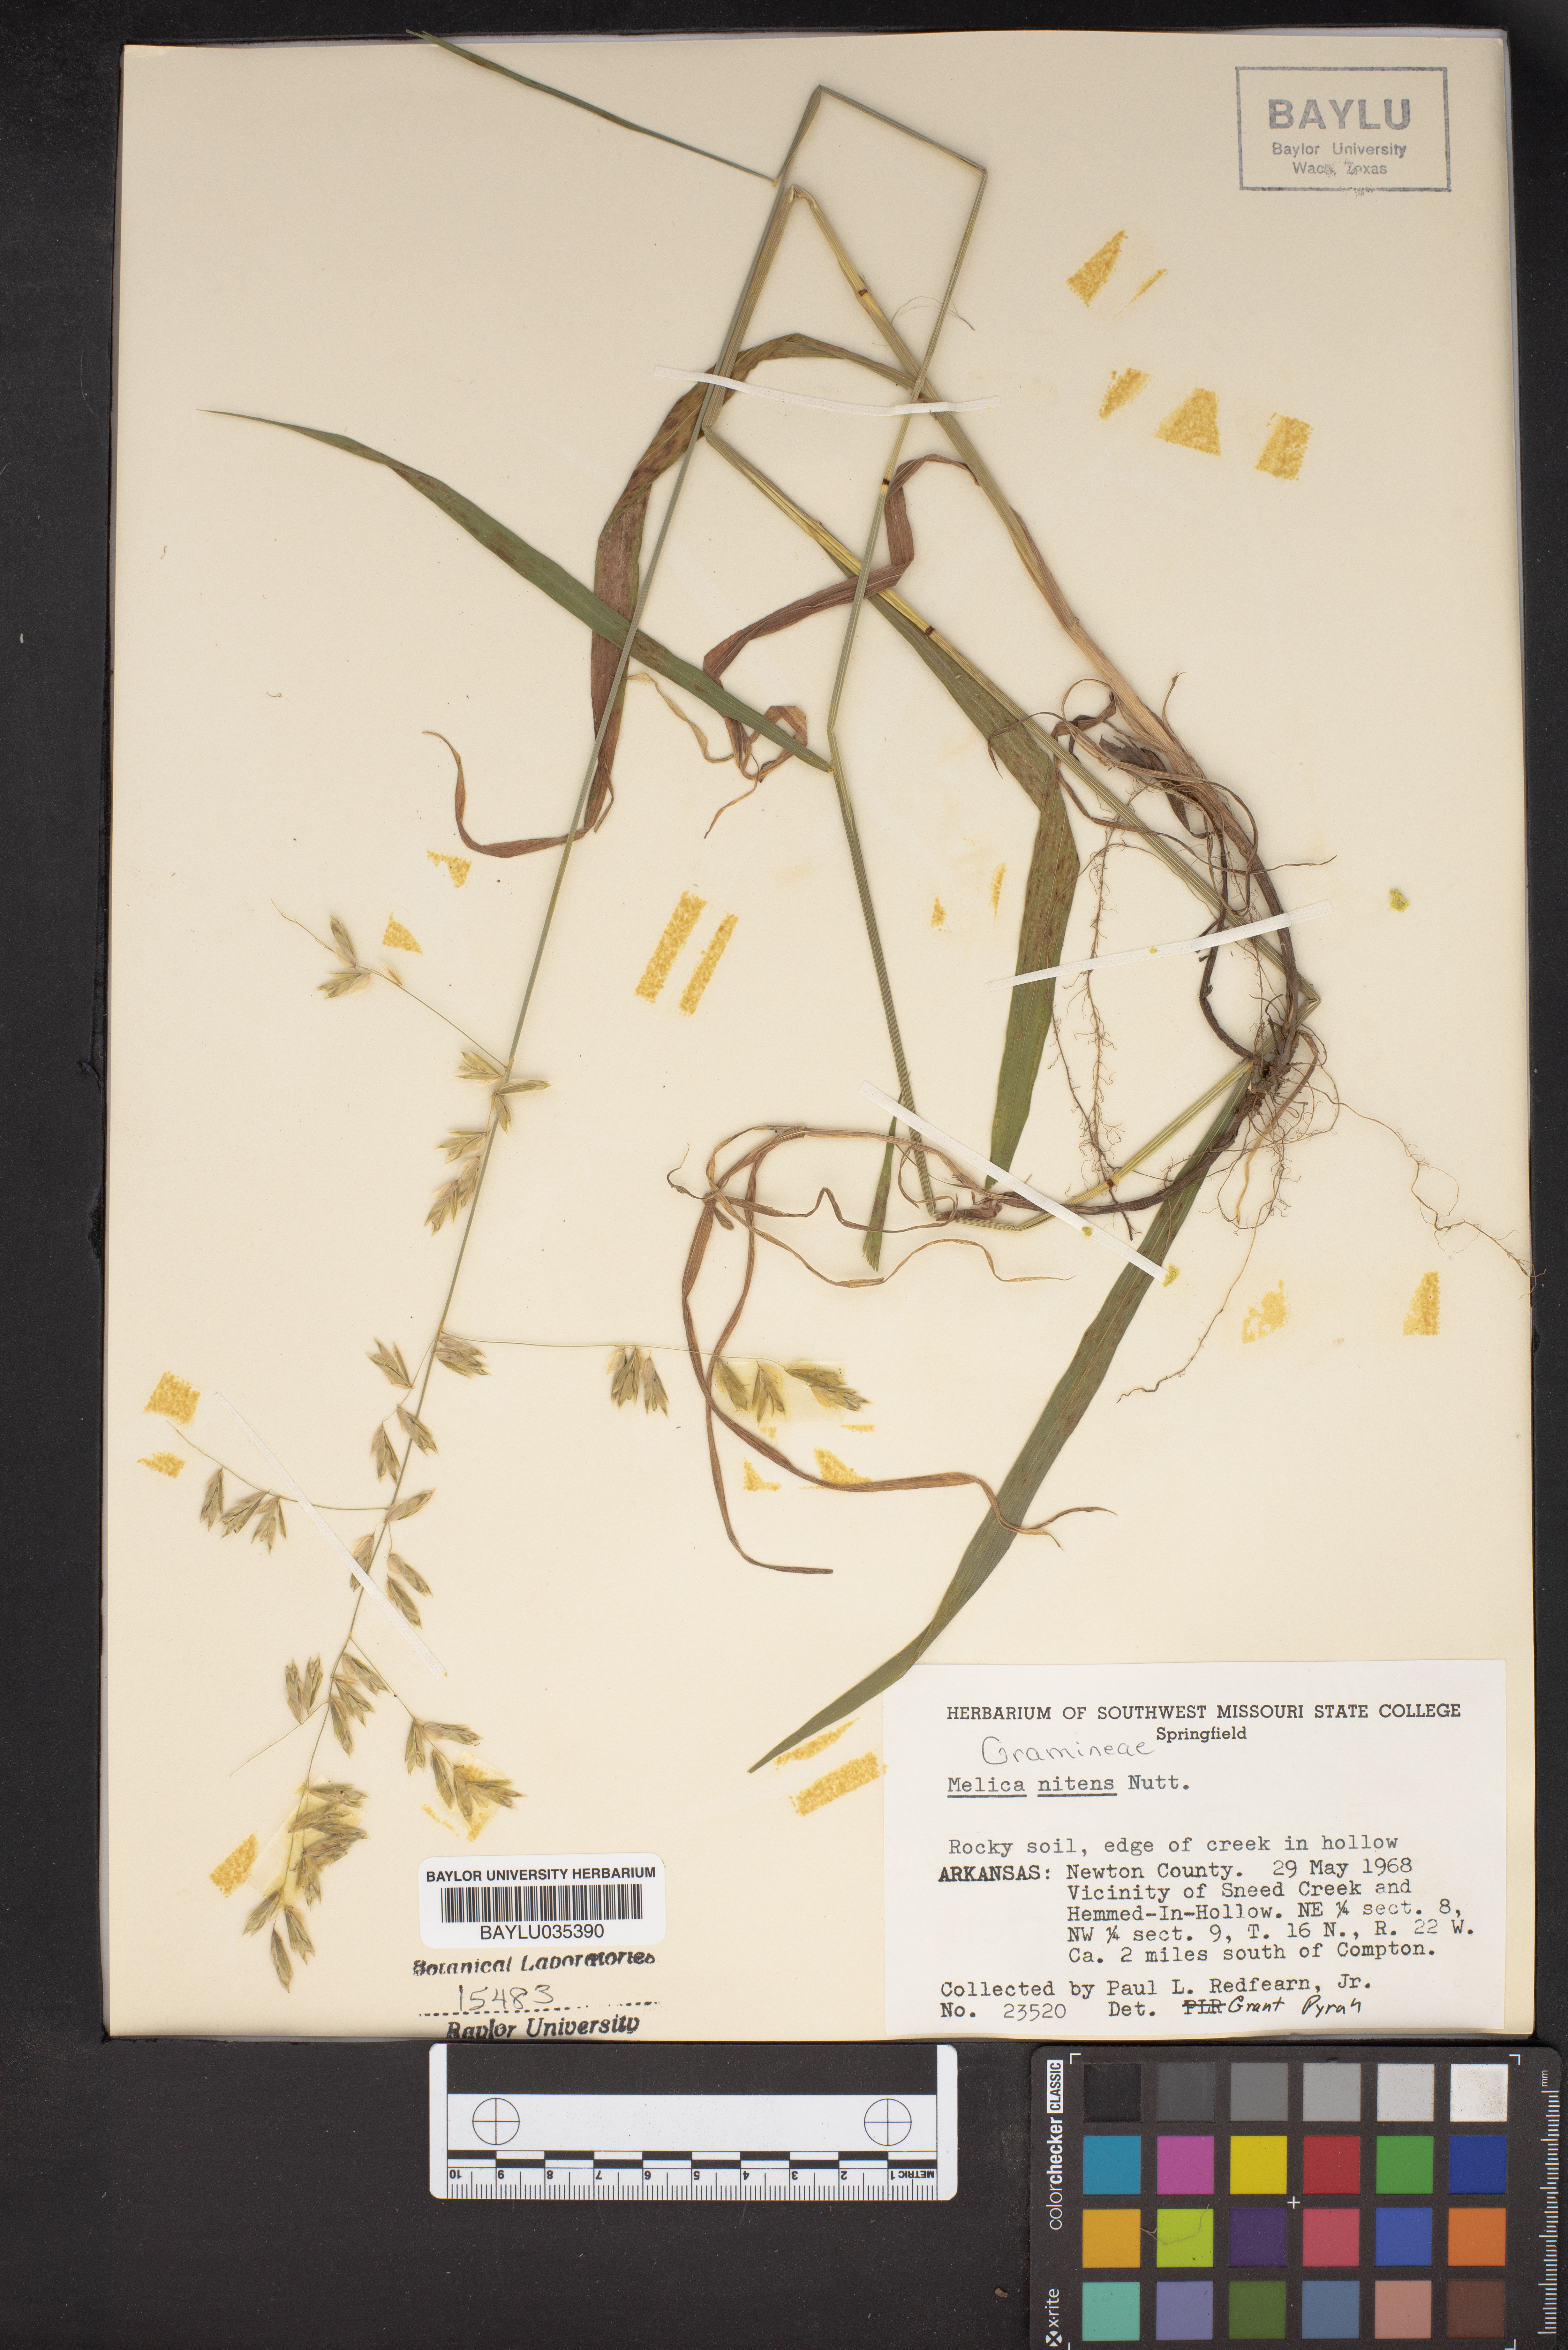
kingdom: Plantae
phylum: Tracheophyta
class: Liliopsida
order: Poales
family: Poaceae
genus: Melica
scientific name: Melica nitens
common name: Three-flower melic
